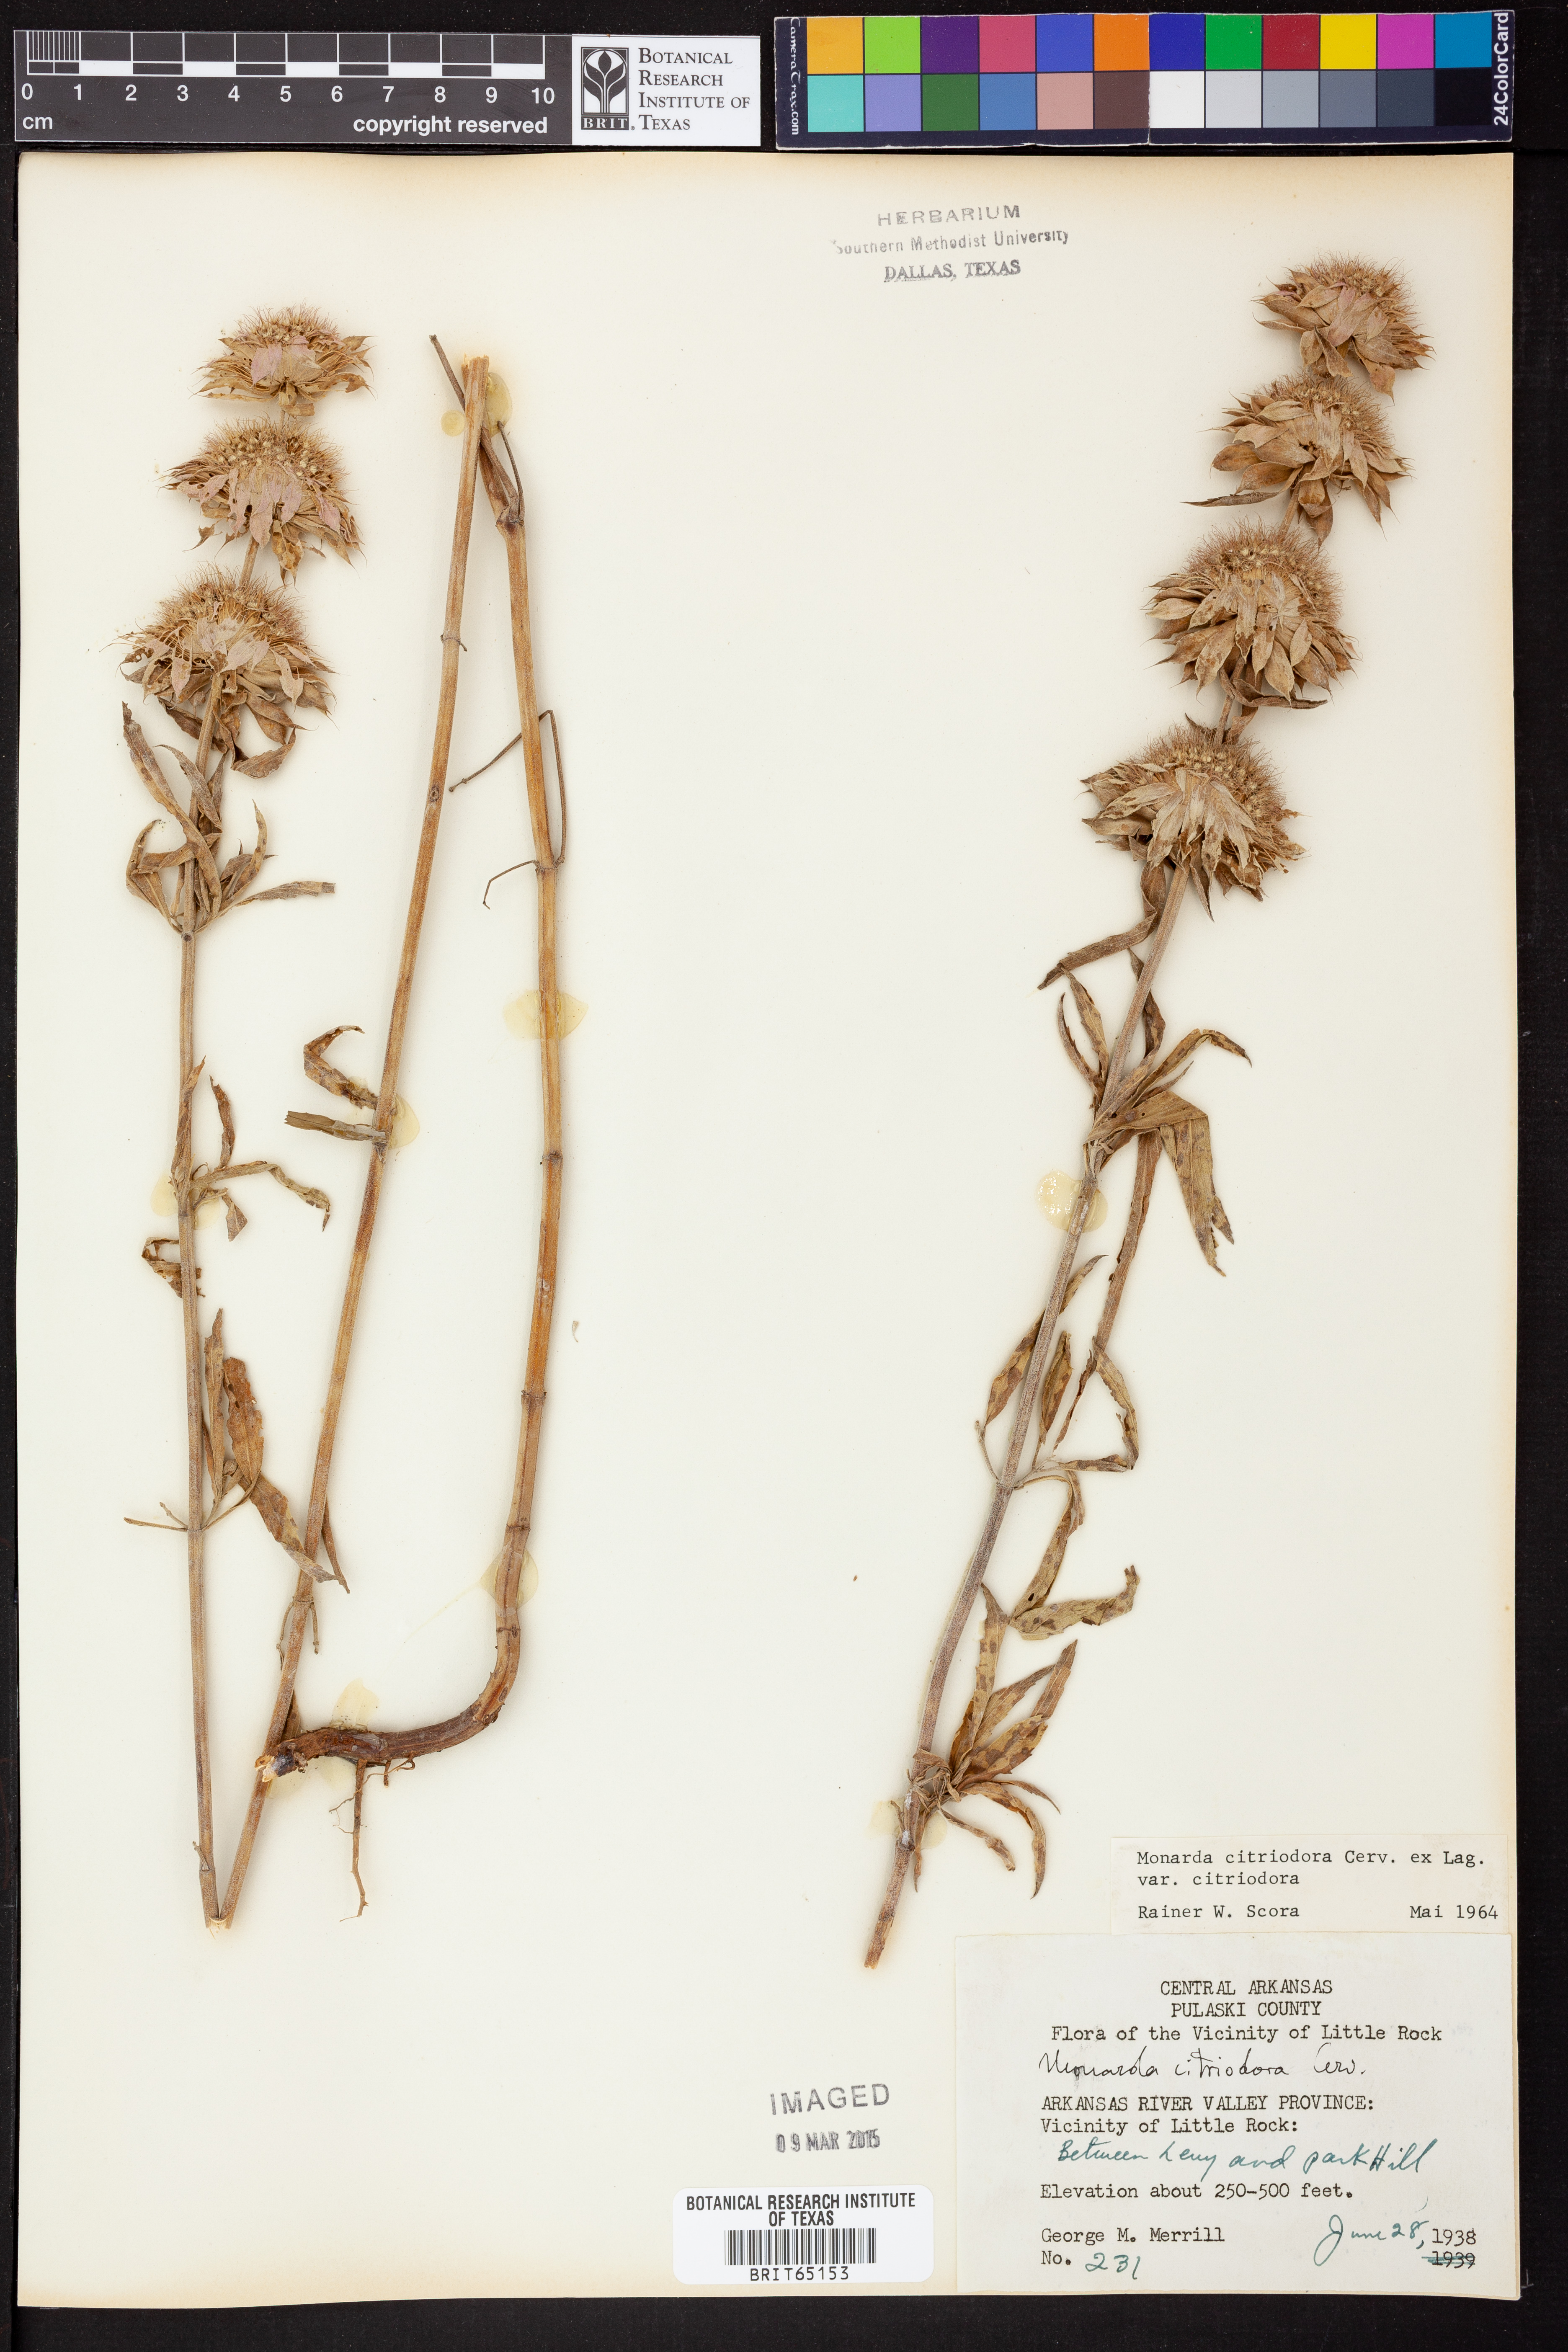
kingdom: Plantae
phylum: Tracheophyta
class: Magnoliopsida
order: Lamiales
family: Lamiaceae
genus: Monarda
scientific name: Monarda citriodora
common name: Lemon beebalm
